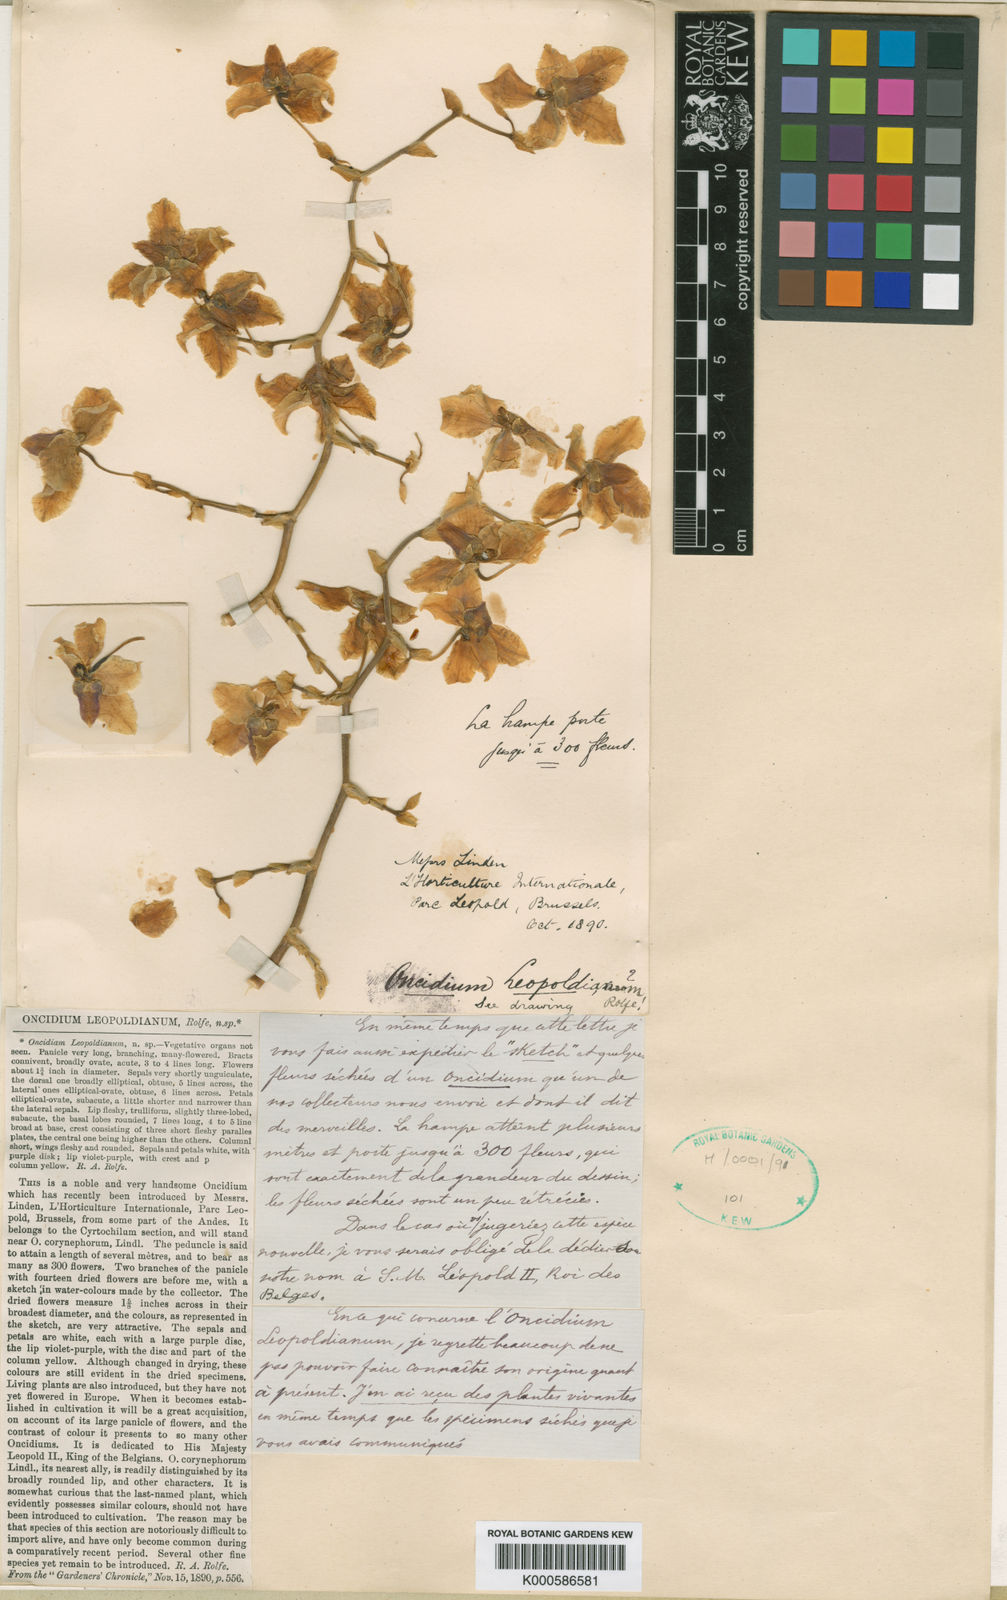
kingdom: Plantae
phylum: Tracheophyta
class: Liliopsida
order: Asparagales
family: Orchidaceae
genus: Cyrtochilum
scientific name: Cyrtochilum leopoldianum
